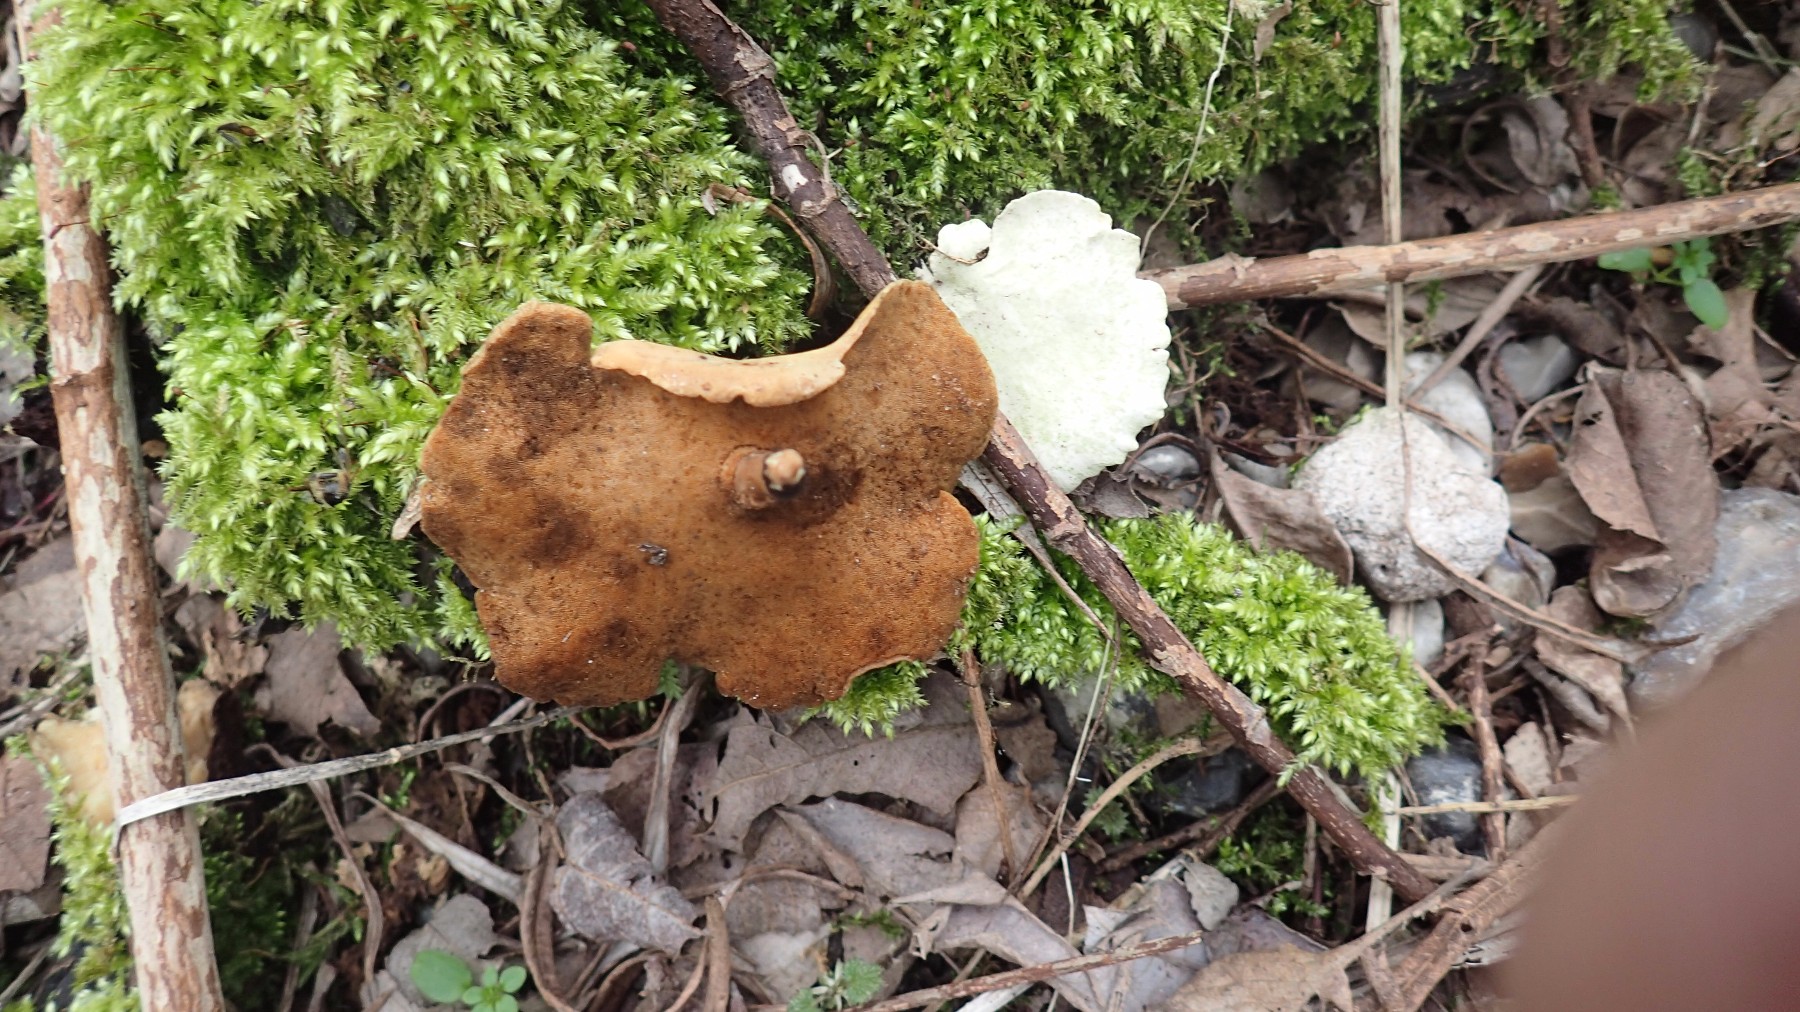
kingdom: Fungi
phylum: Basidiomycota
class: Agaricomycetes
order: Polyporales
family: Polyporaceae
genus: Cerioporus
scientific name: Cerioporus varius
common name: foranderlig stilkporesvamp
